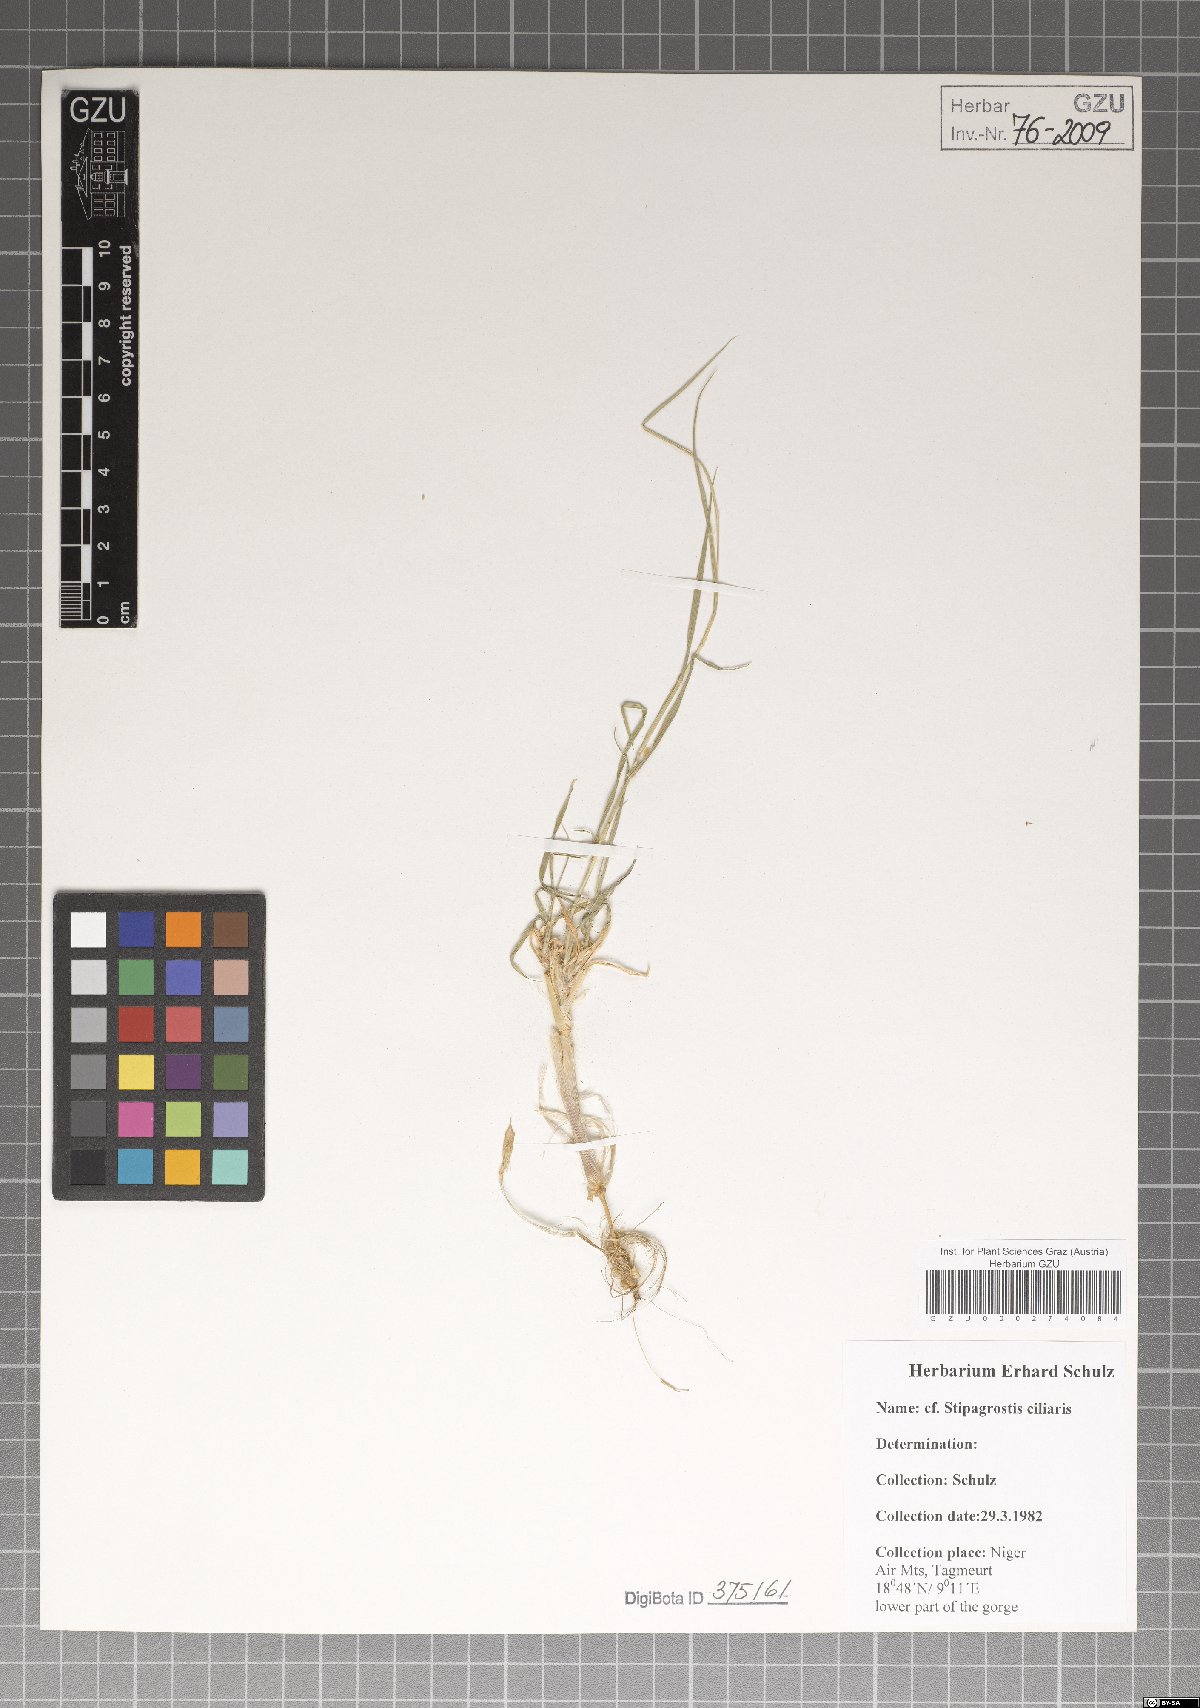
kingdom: Plantae
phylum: Tracheophyta
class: Liliopsida
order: Poales
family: Poaceae
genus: Stipagrostis
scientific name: Stipagrostis ciliata
